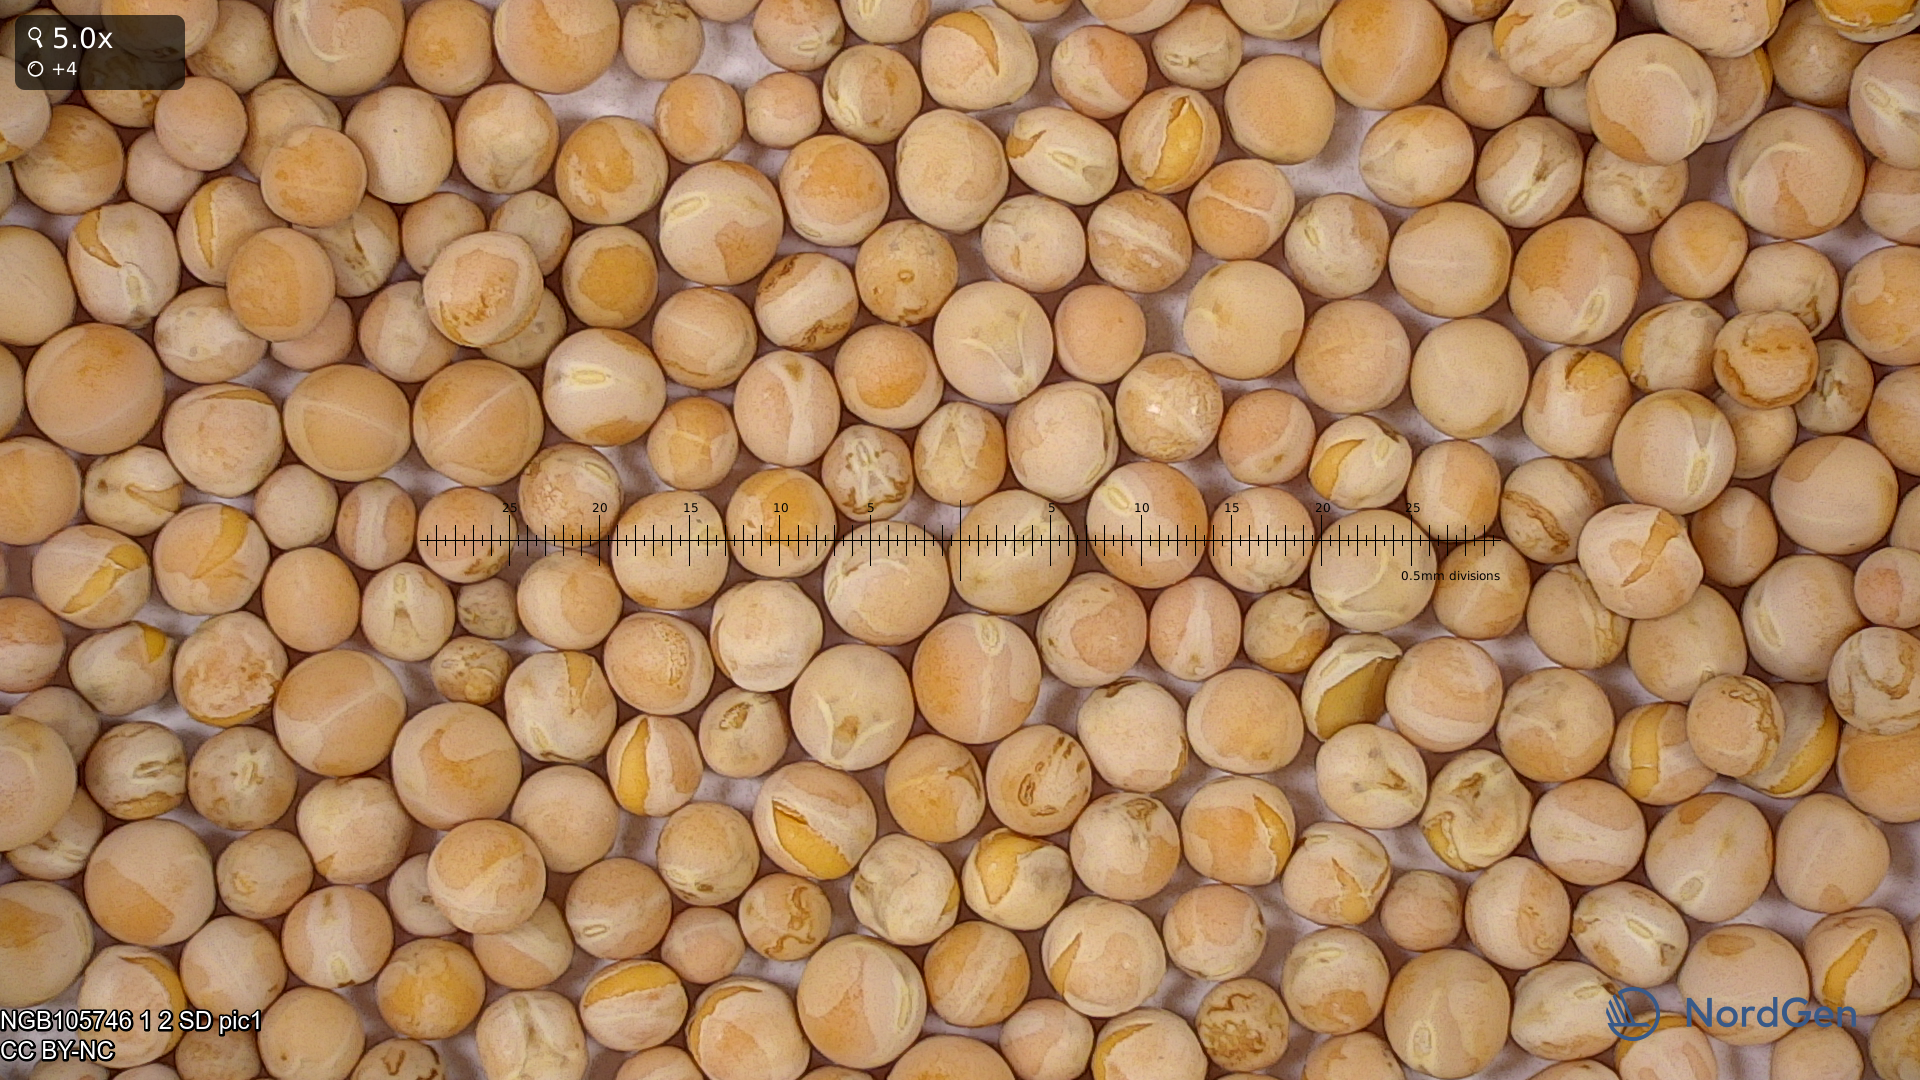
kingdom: Plantae
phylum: Tracheophyta
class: Magnoliopsida
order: Fabales
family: Fabaceae
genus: Lathyrus
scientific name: Lathyrus oleraceus
